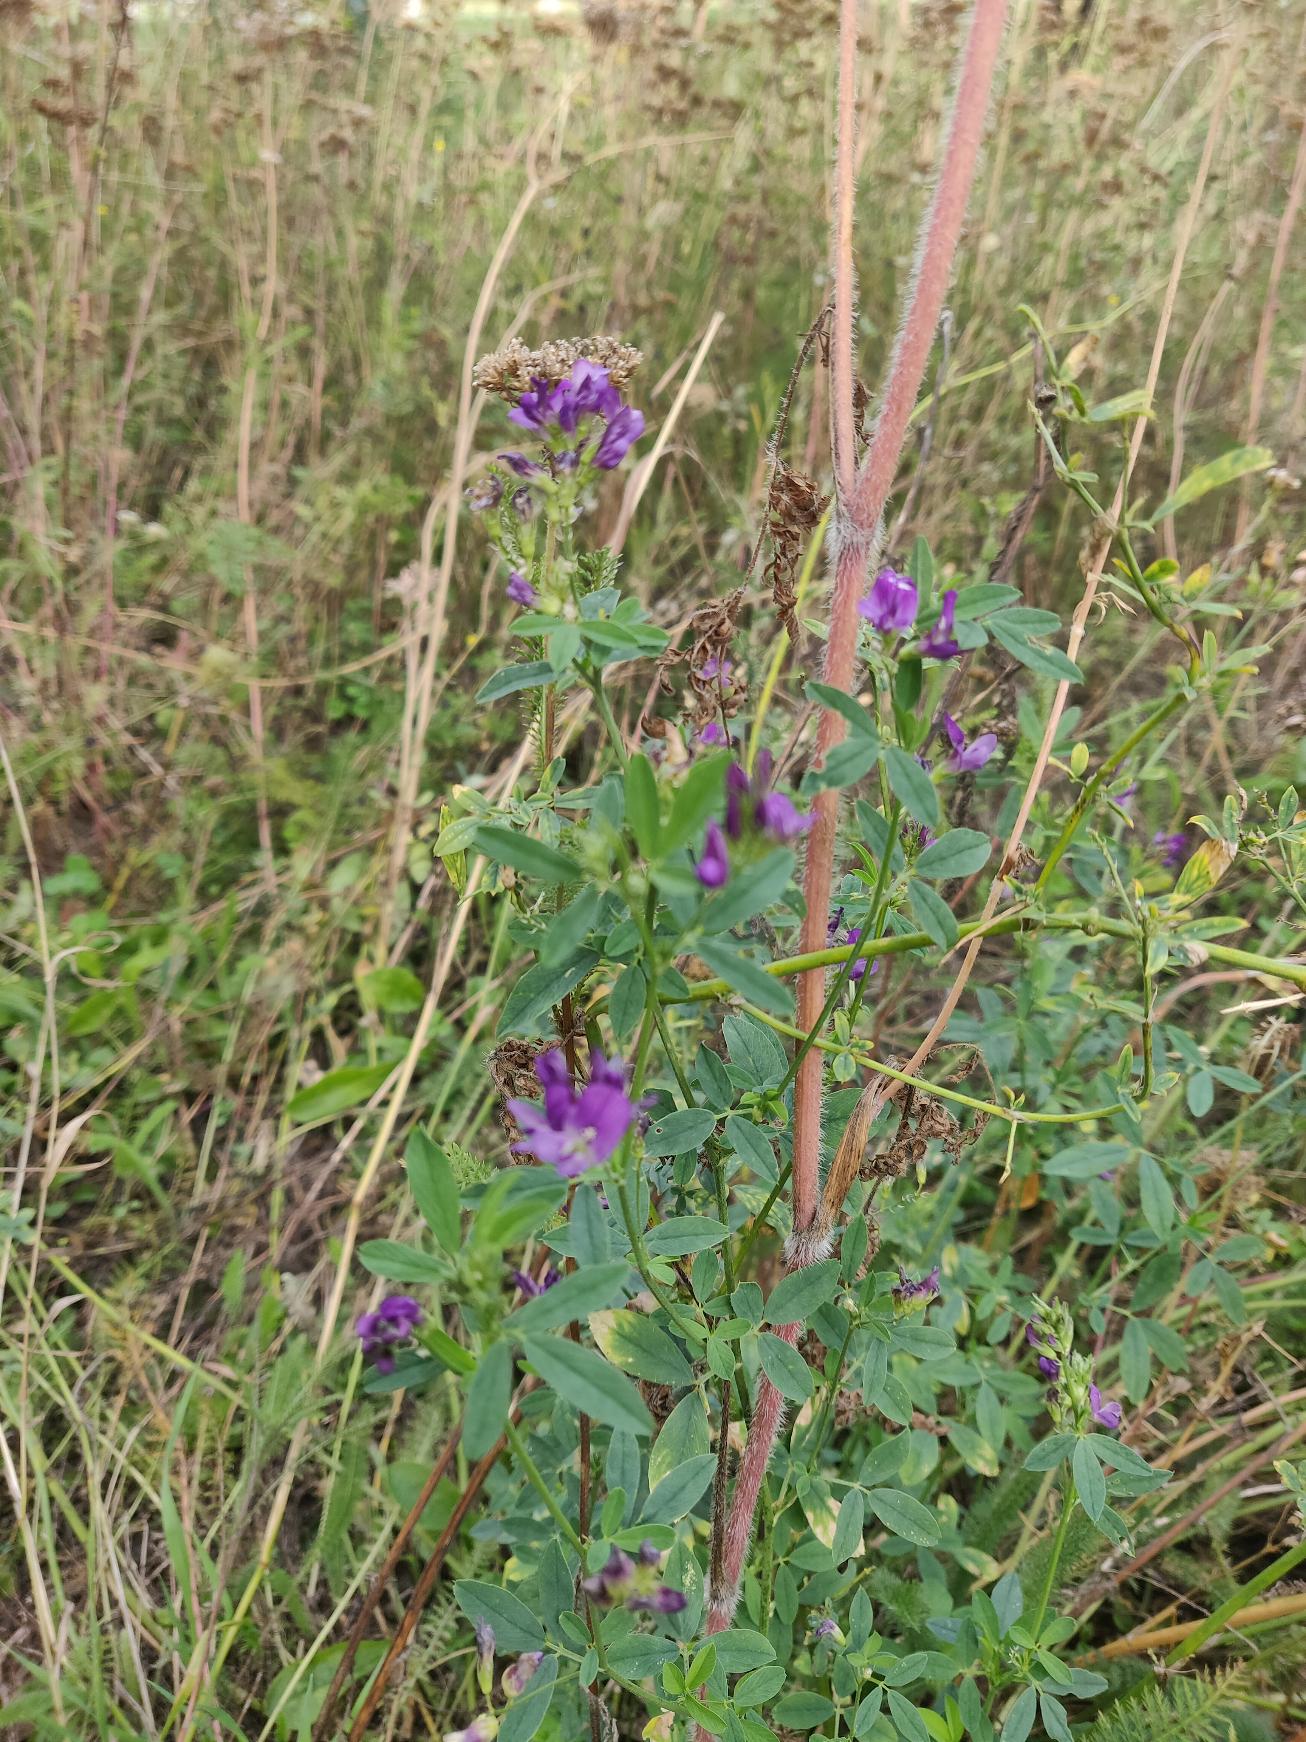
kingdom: Plantae
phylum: Tracheophyta
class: Magnoliopsida
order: Fabales
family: Fabaceae
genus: Medicago
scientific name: Medicago sativa
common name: Lucerne
